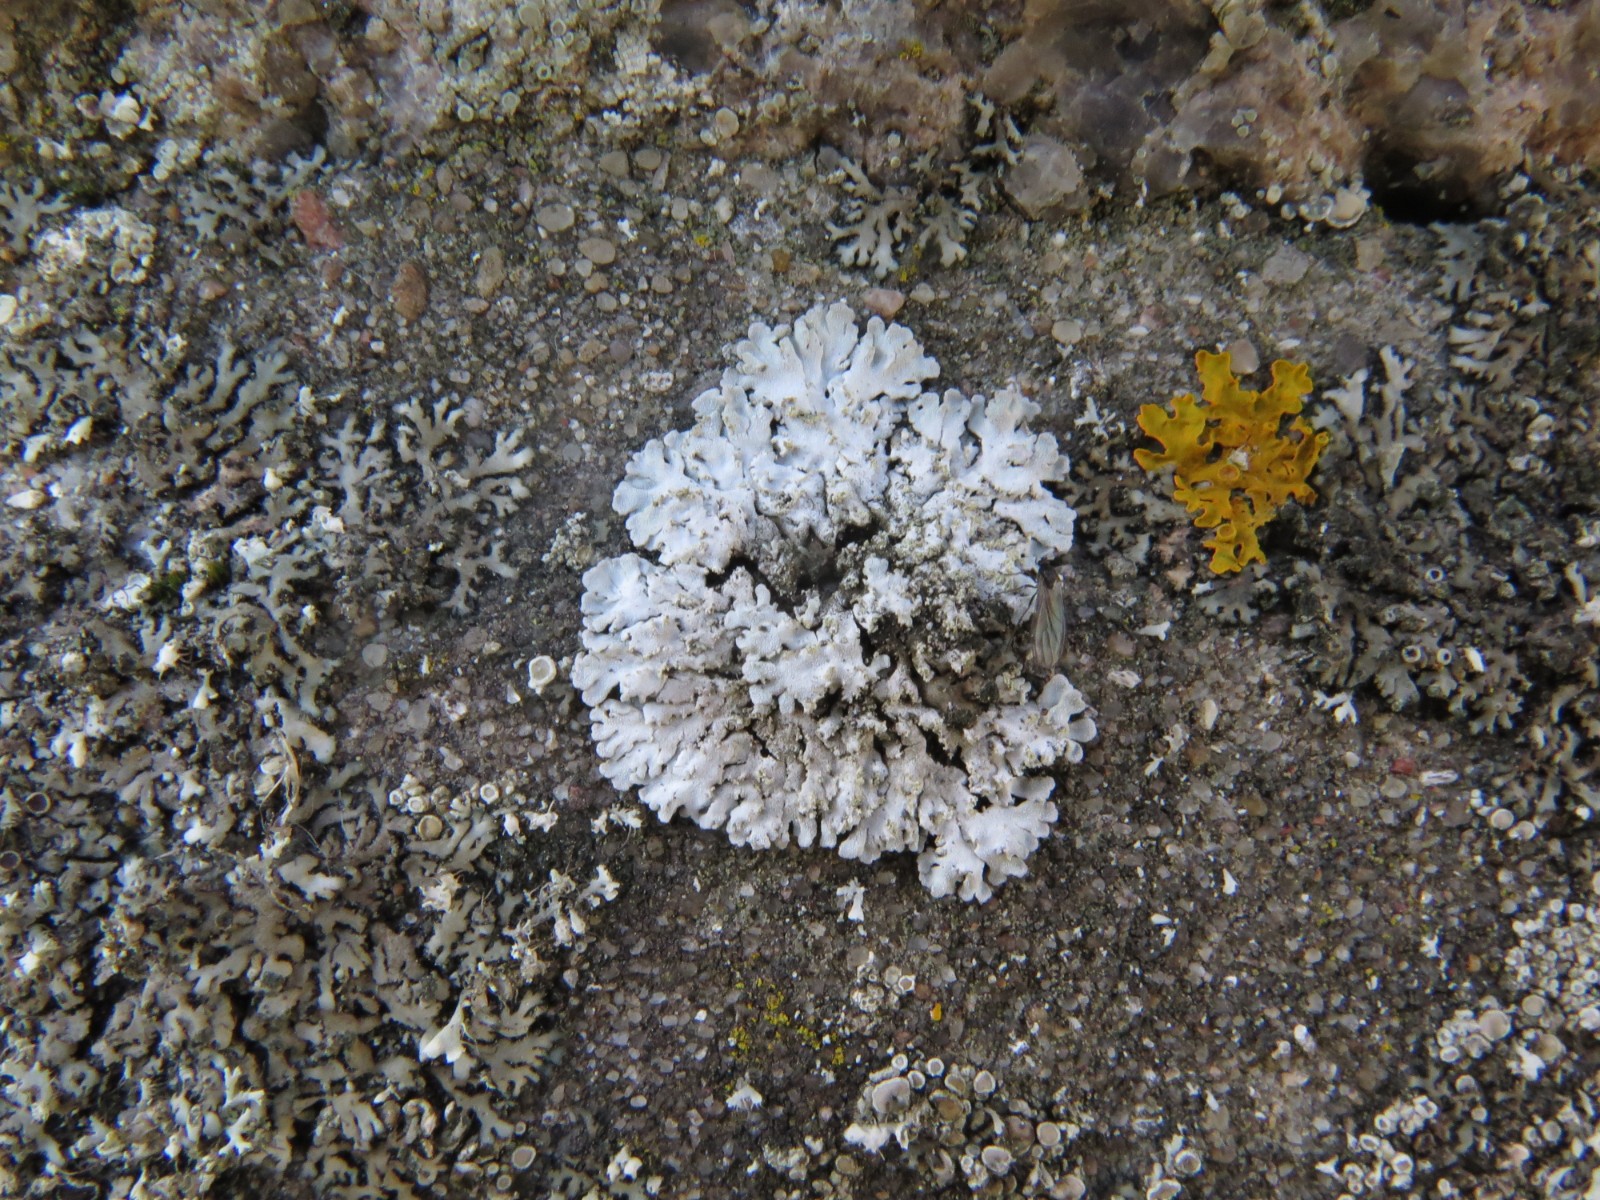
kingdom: Fungi
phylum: Ascomycota
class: Lecanoromycetes
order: Caliciales
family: Physciaceae
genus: Phaeophyscia
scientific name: Phaeophyscia orbicularis
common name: grågrøn rosetlav
